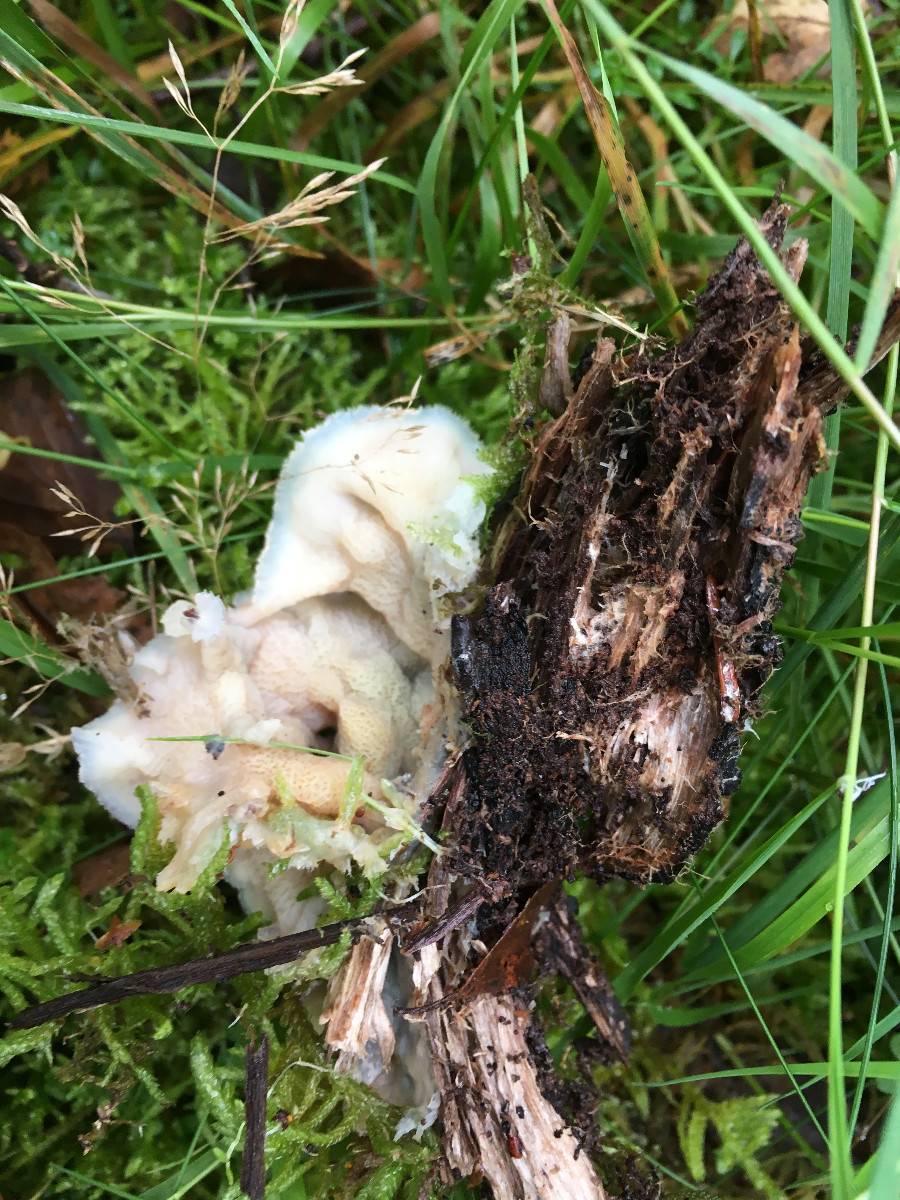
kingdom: Fungi
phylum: Basidiomycota
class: Agaricomycetes
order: Polyporales
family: Meruliaceae
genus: Phlebia
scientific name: Phlebia tremellosa
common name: bævrende åresvamp
